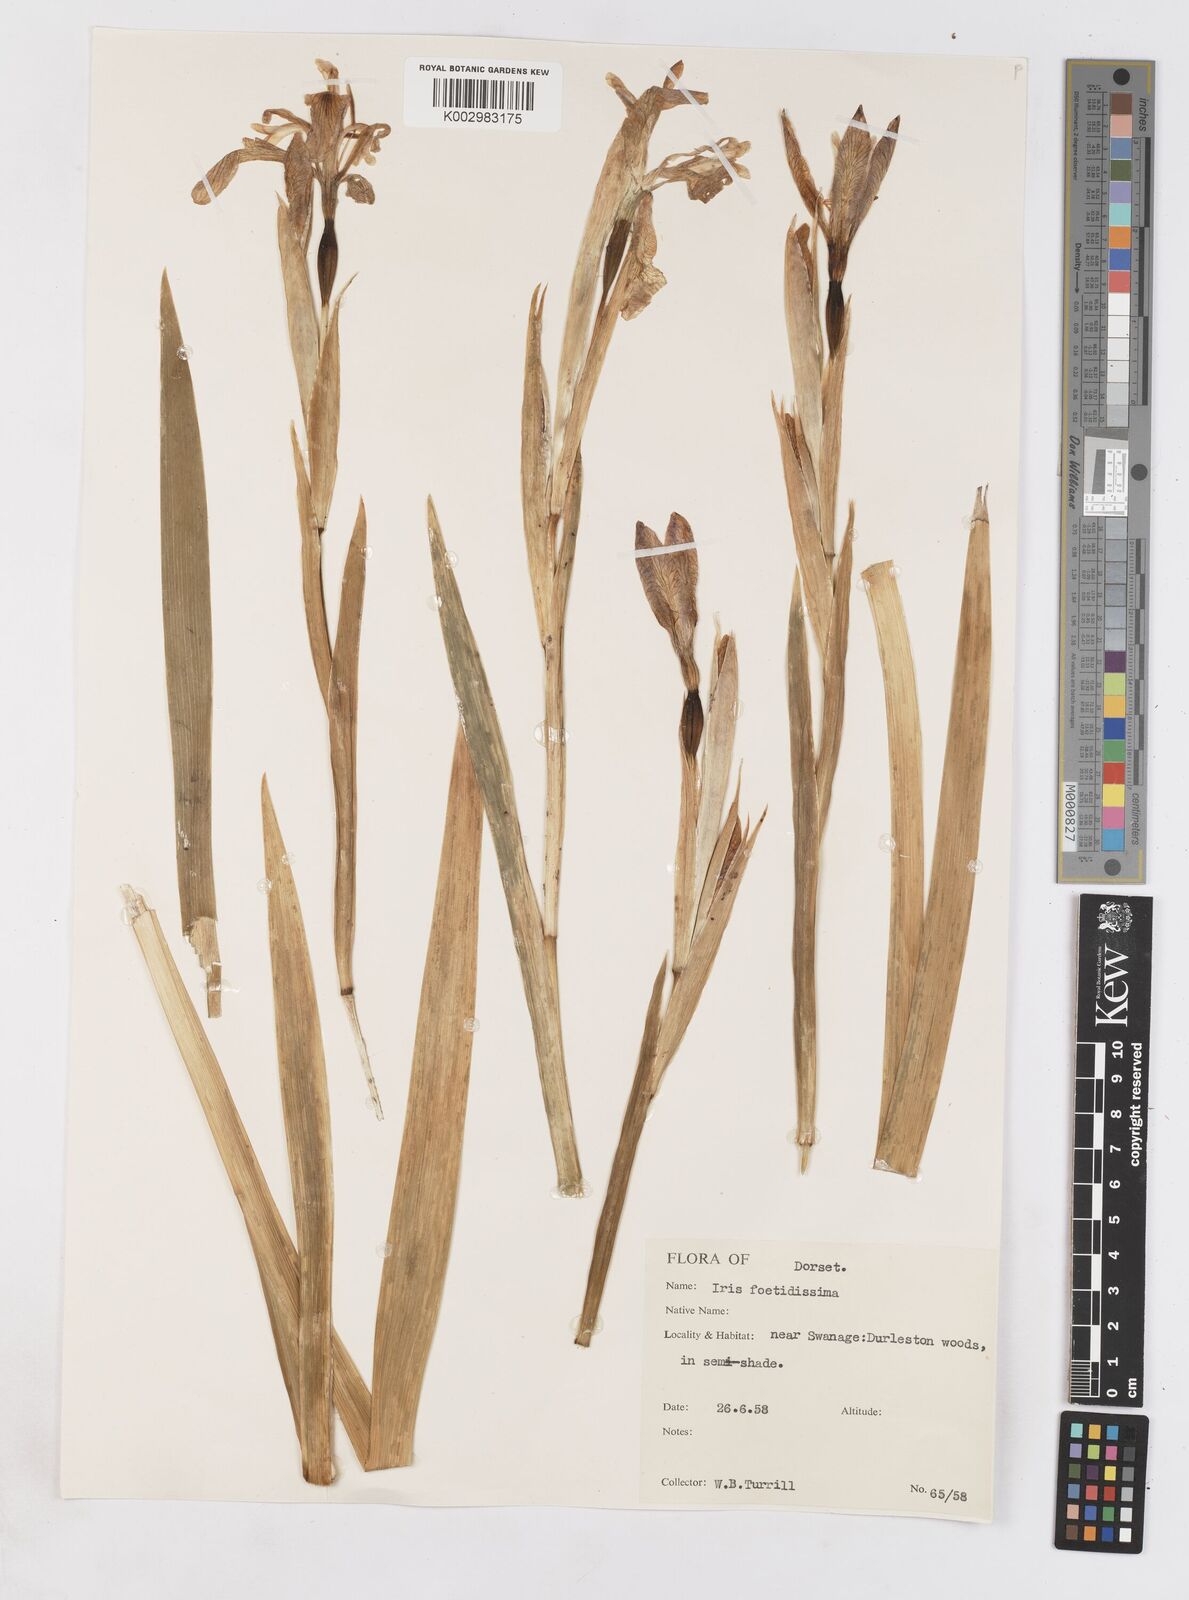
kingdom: Plantae
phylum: Tracheophyta
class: Liliopsida
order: Asparagales
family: Iridaceae
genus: Iris
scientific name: Iris foetidissima
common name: Stinking iris
